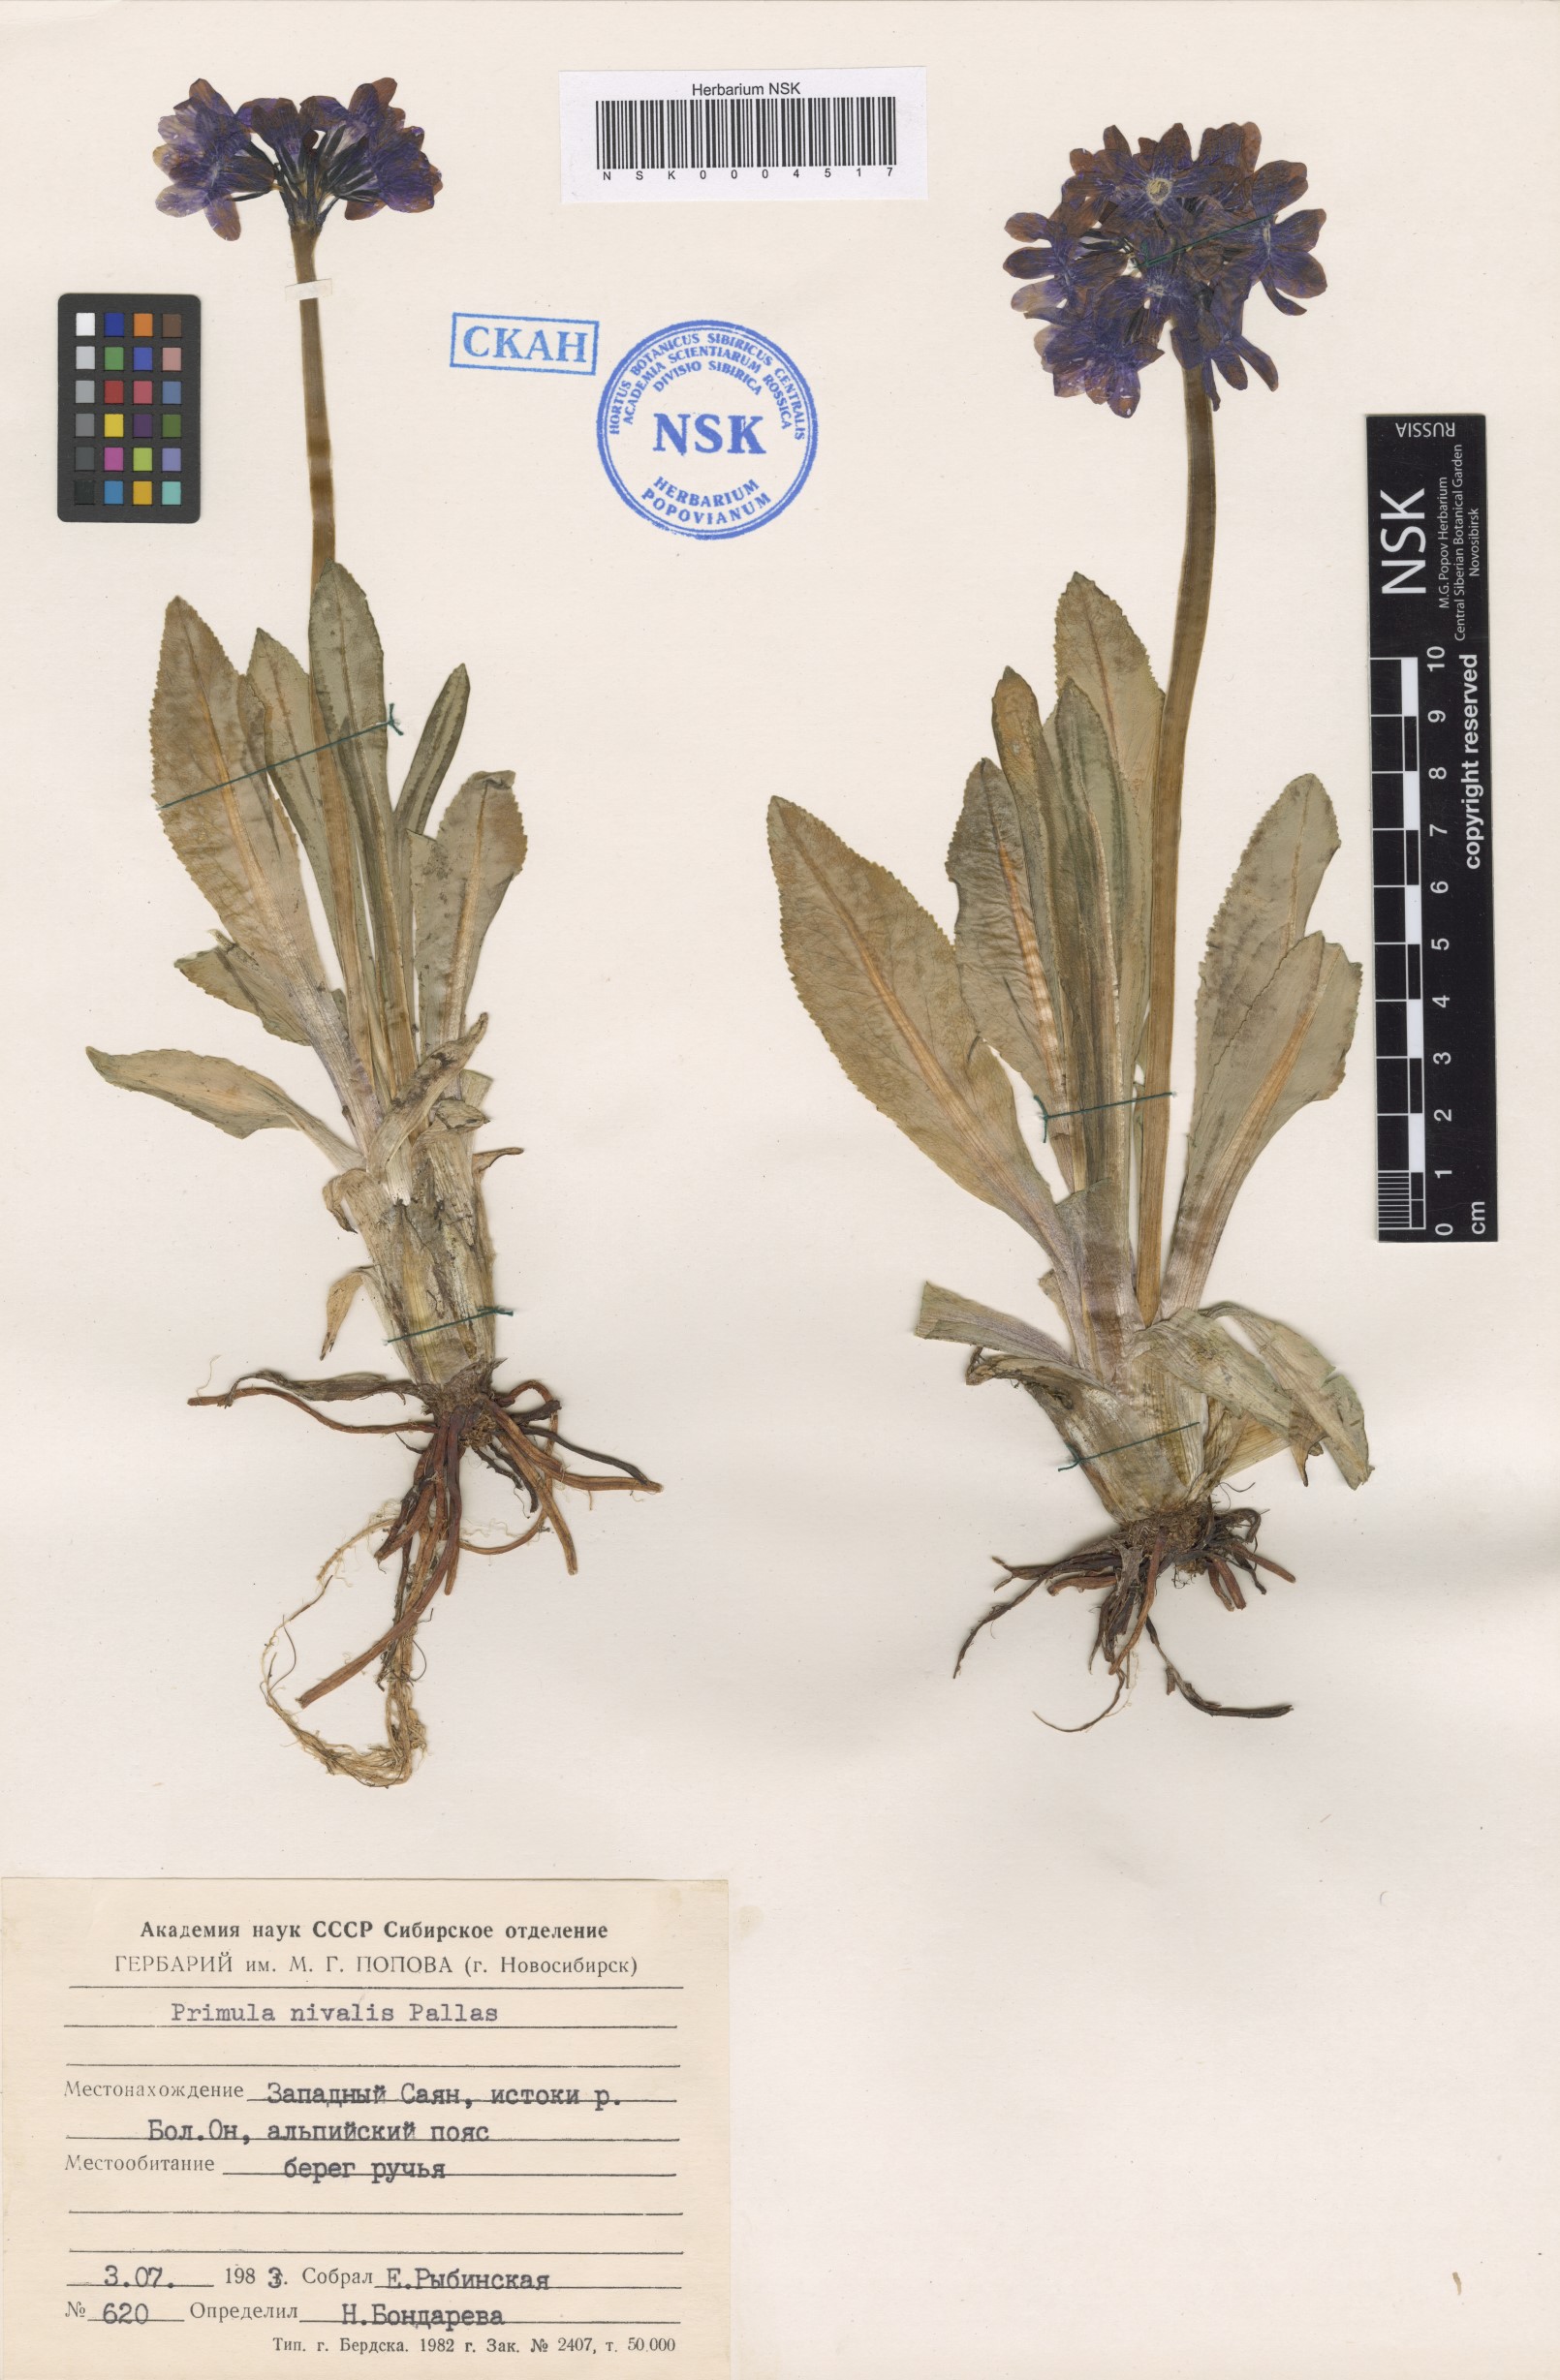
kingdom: Plantae
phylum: Tracheophyta
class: Magnoliopsida
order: Ericales
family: Primulaceae
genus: Primula
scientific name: Primula nivalis
